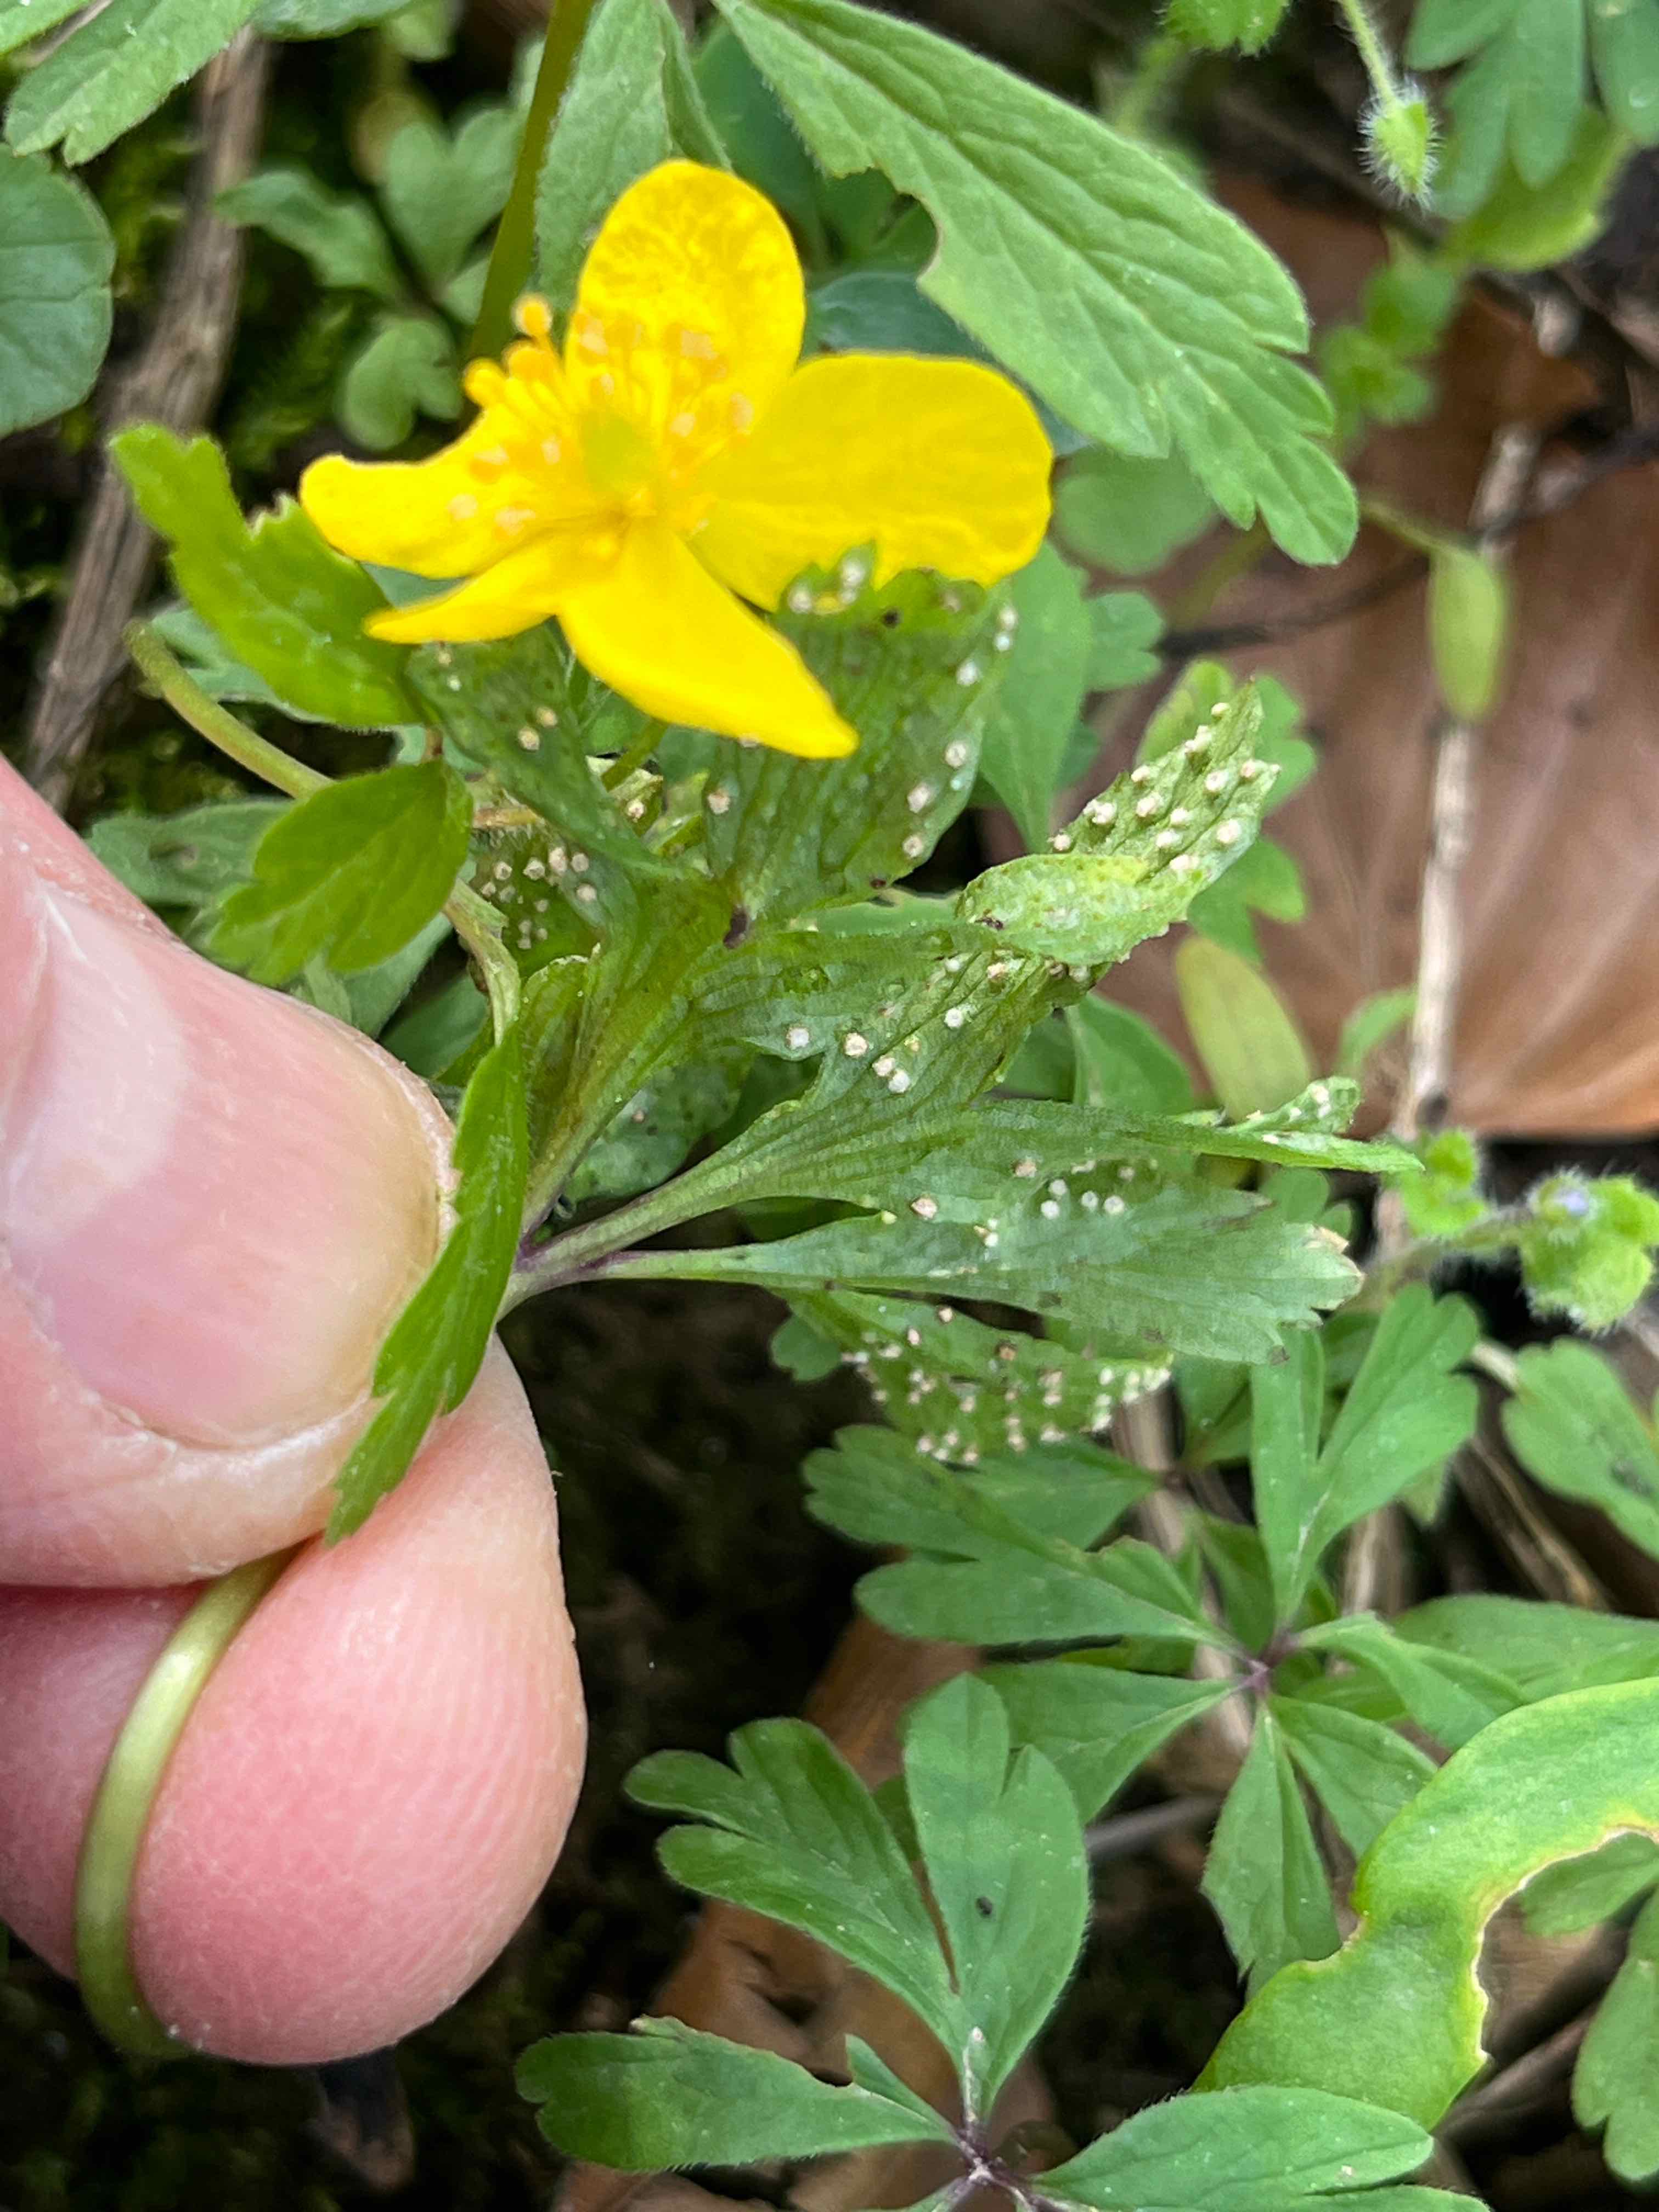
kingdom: Fungi
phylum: Basidiomycota
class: Pucciniomycetes
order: Pucciniales
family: Ochropsoraceae
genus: Ochropsora
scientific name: Ochropsora ariae
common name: anemone-okkerpletrust
